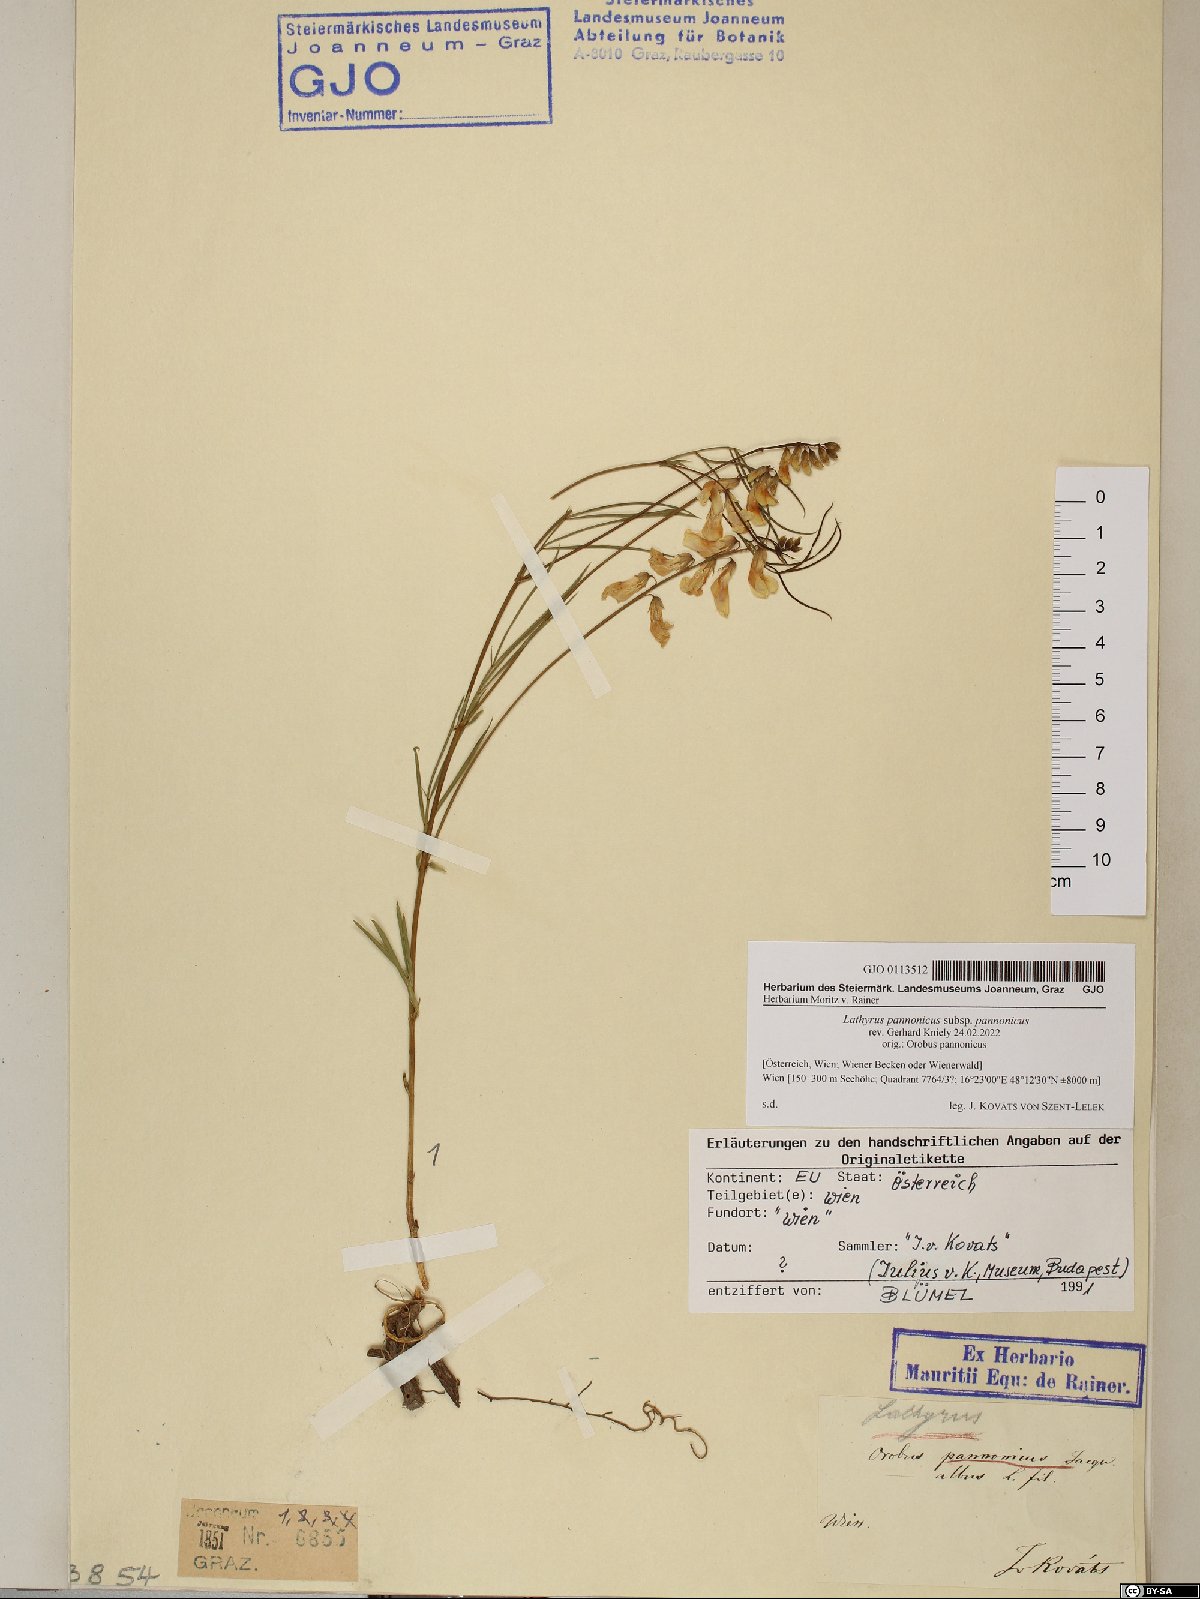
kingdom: Plantae
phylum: Tracheophyta
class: Magnoliopsida
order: Fabales
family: Fabaceae
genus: Lathyrus
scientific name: Lathyrus pannonicus
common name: Pea
